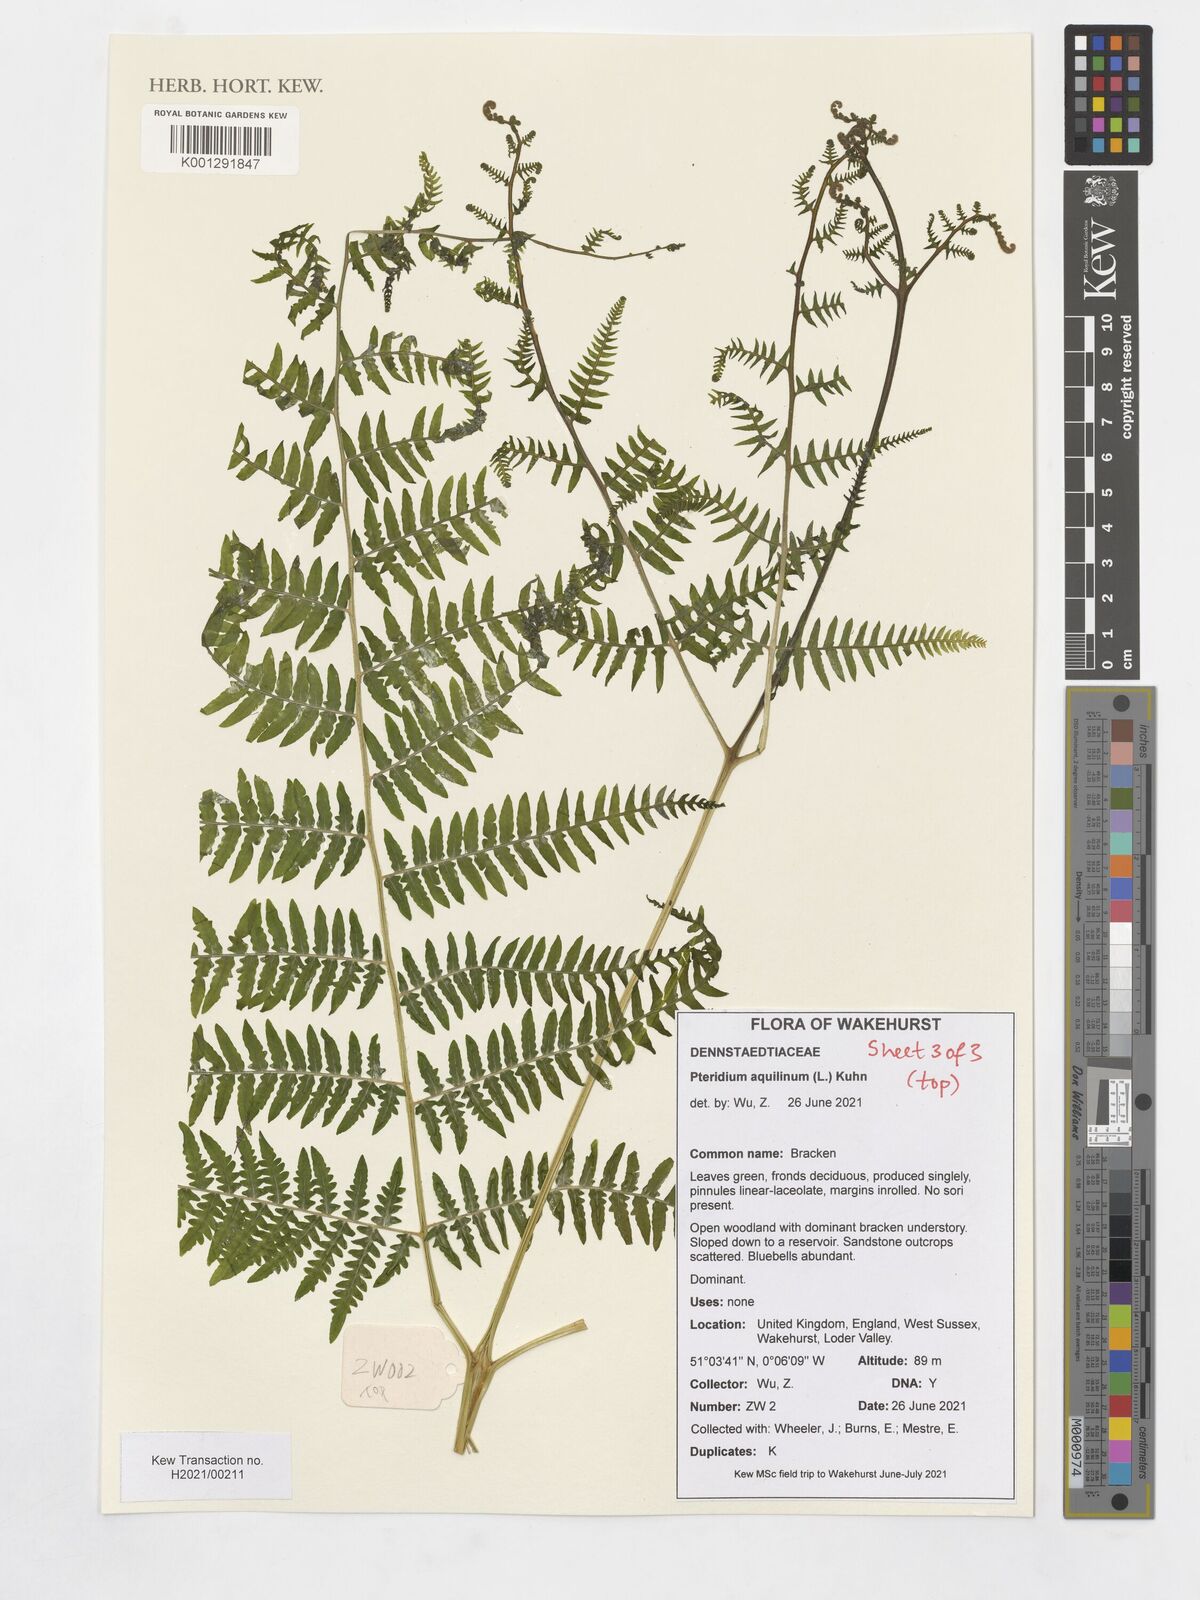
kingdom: Plantae
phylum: Tracheophyta
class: Polypodiopsida
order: Polypodiales
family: Dennstaedtiaceae
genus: Pteridium
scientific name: Pteridium aquilinum
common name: Bracken
